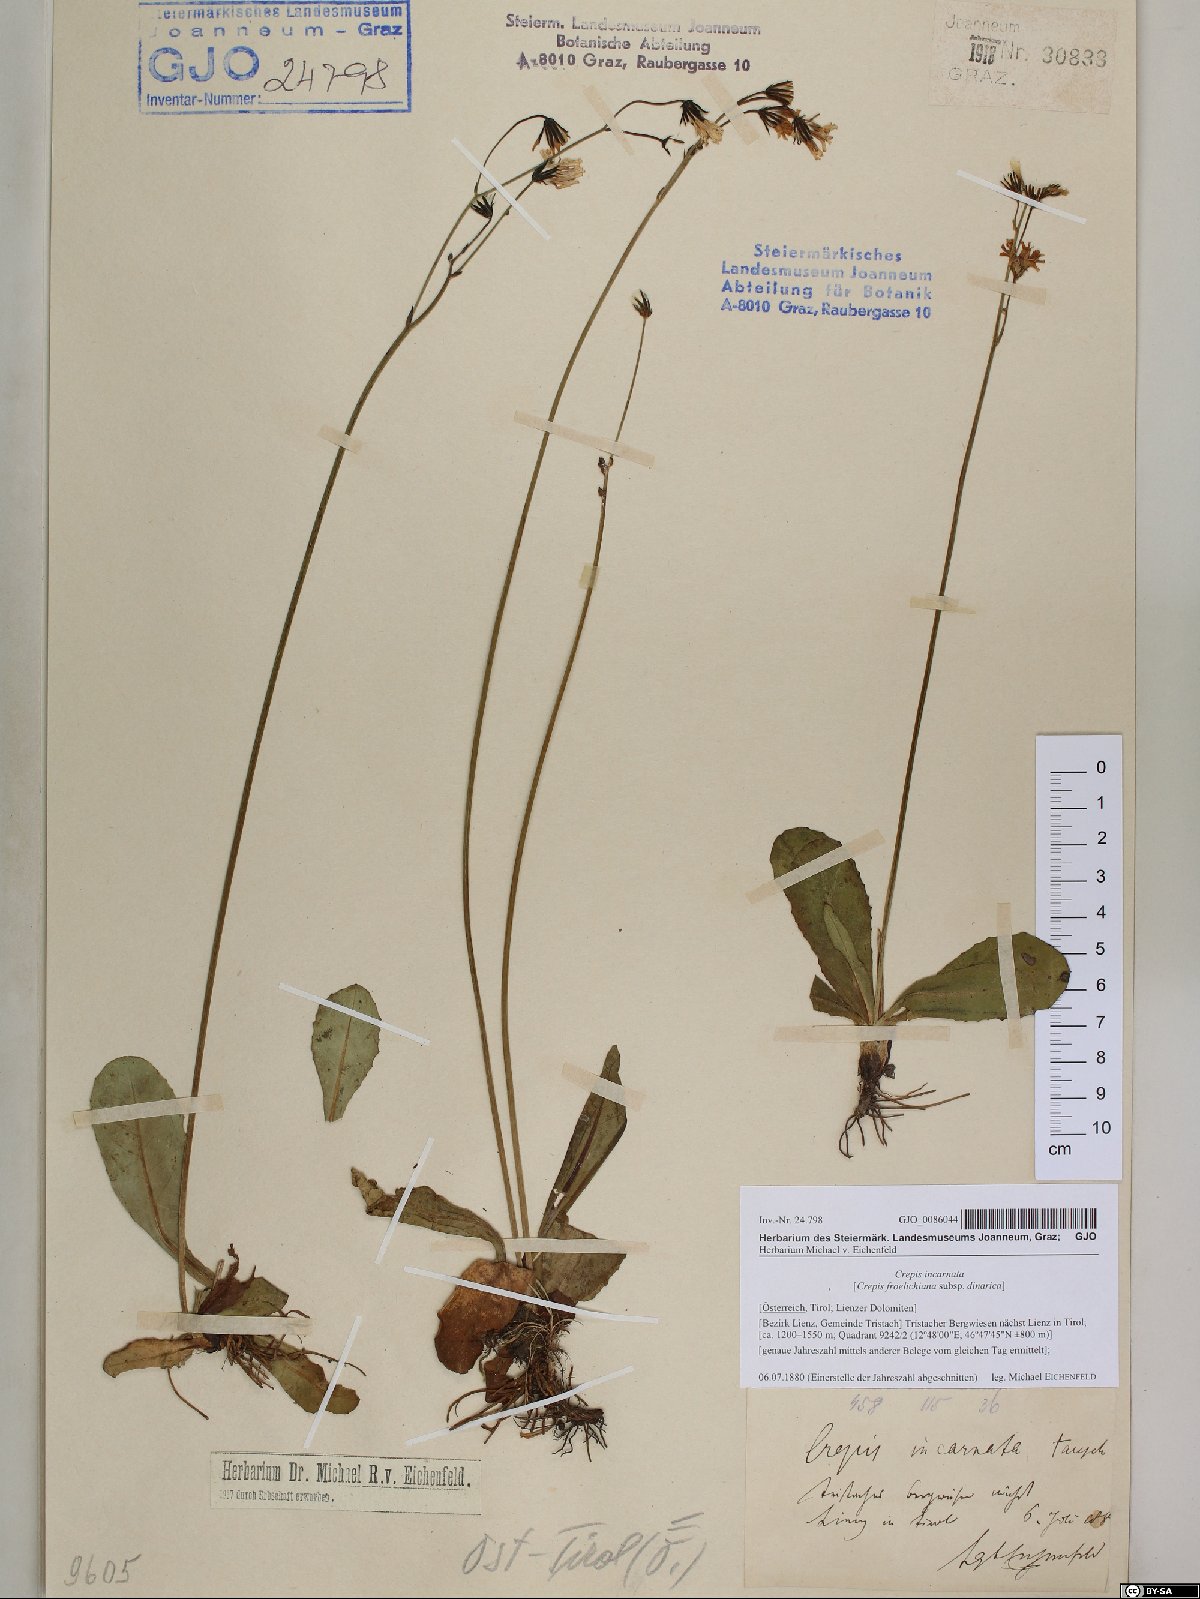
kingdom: Plantae
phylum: Tracheophyta
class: Magnoliopsida
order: Asterales
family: Asteraceae
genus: Crepis
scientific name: Crepis froelichiana
